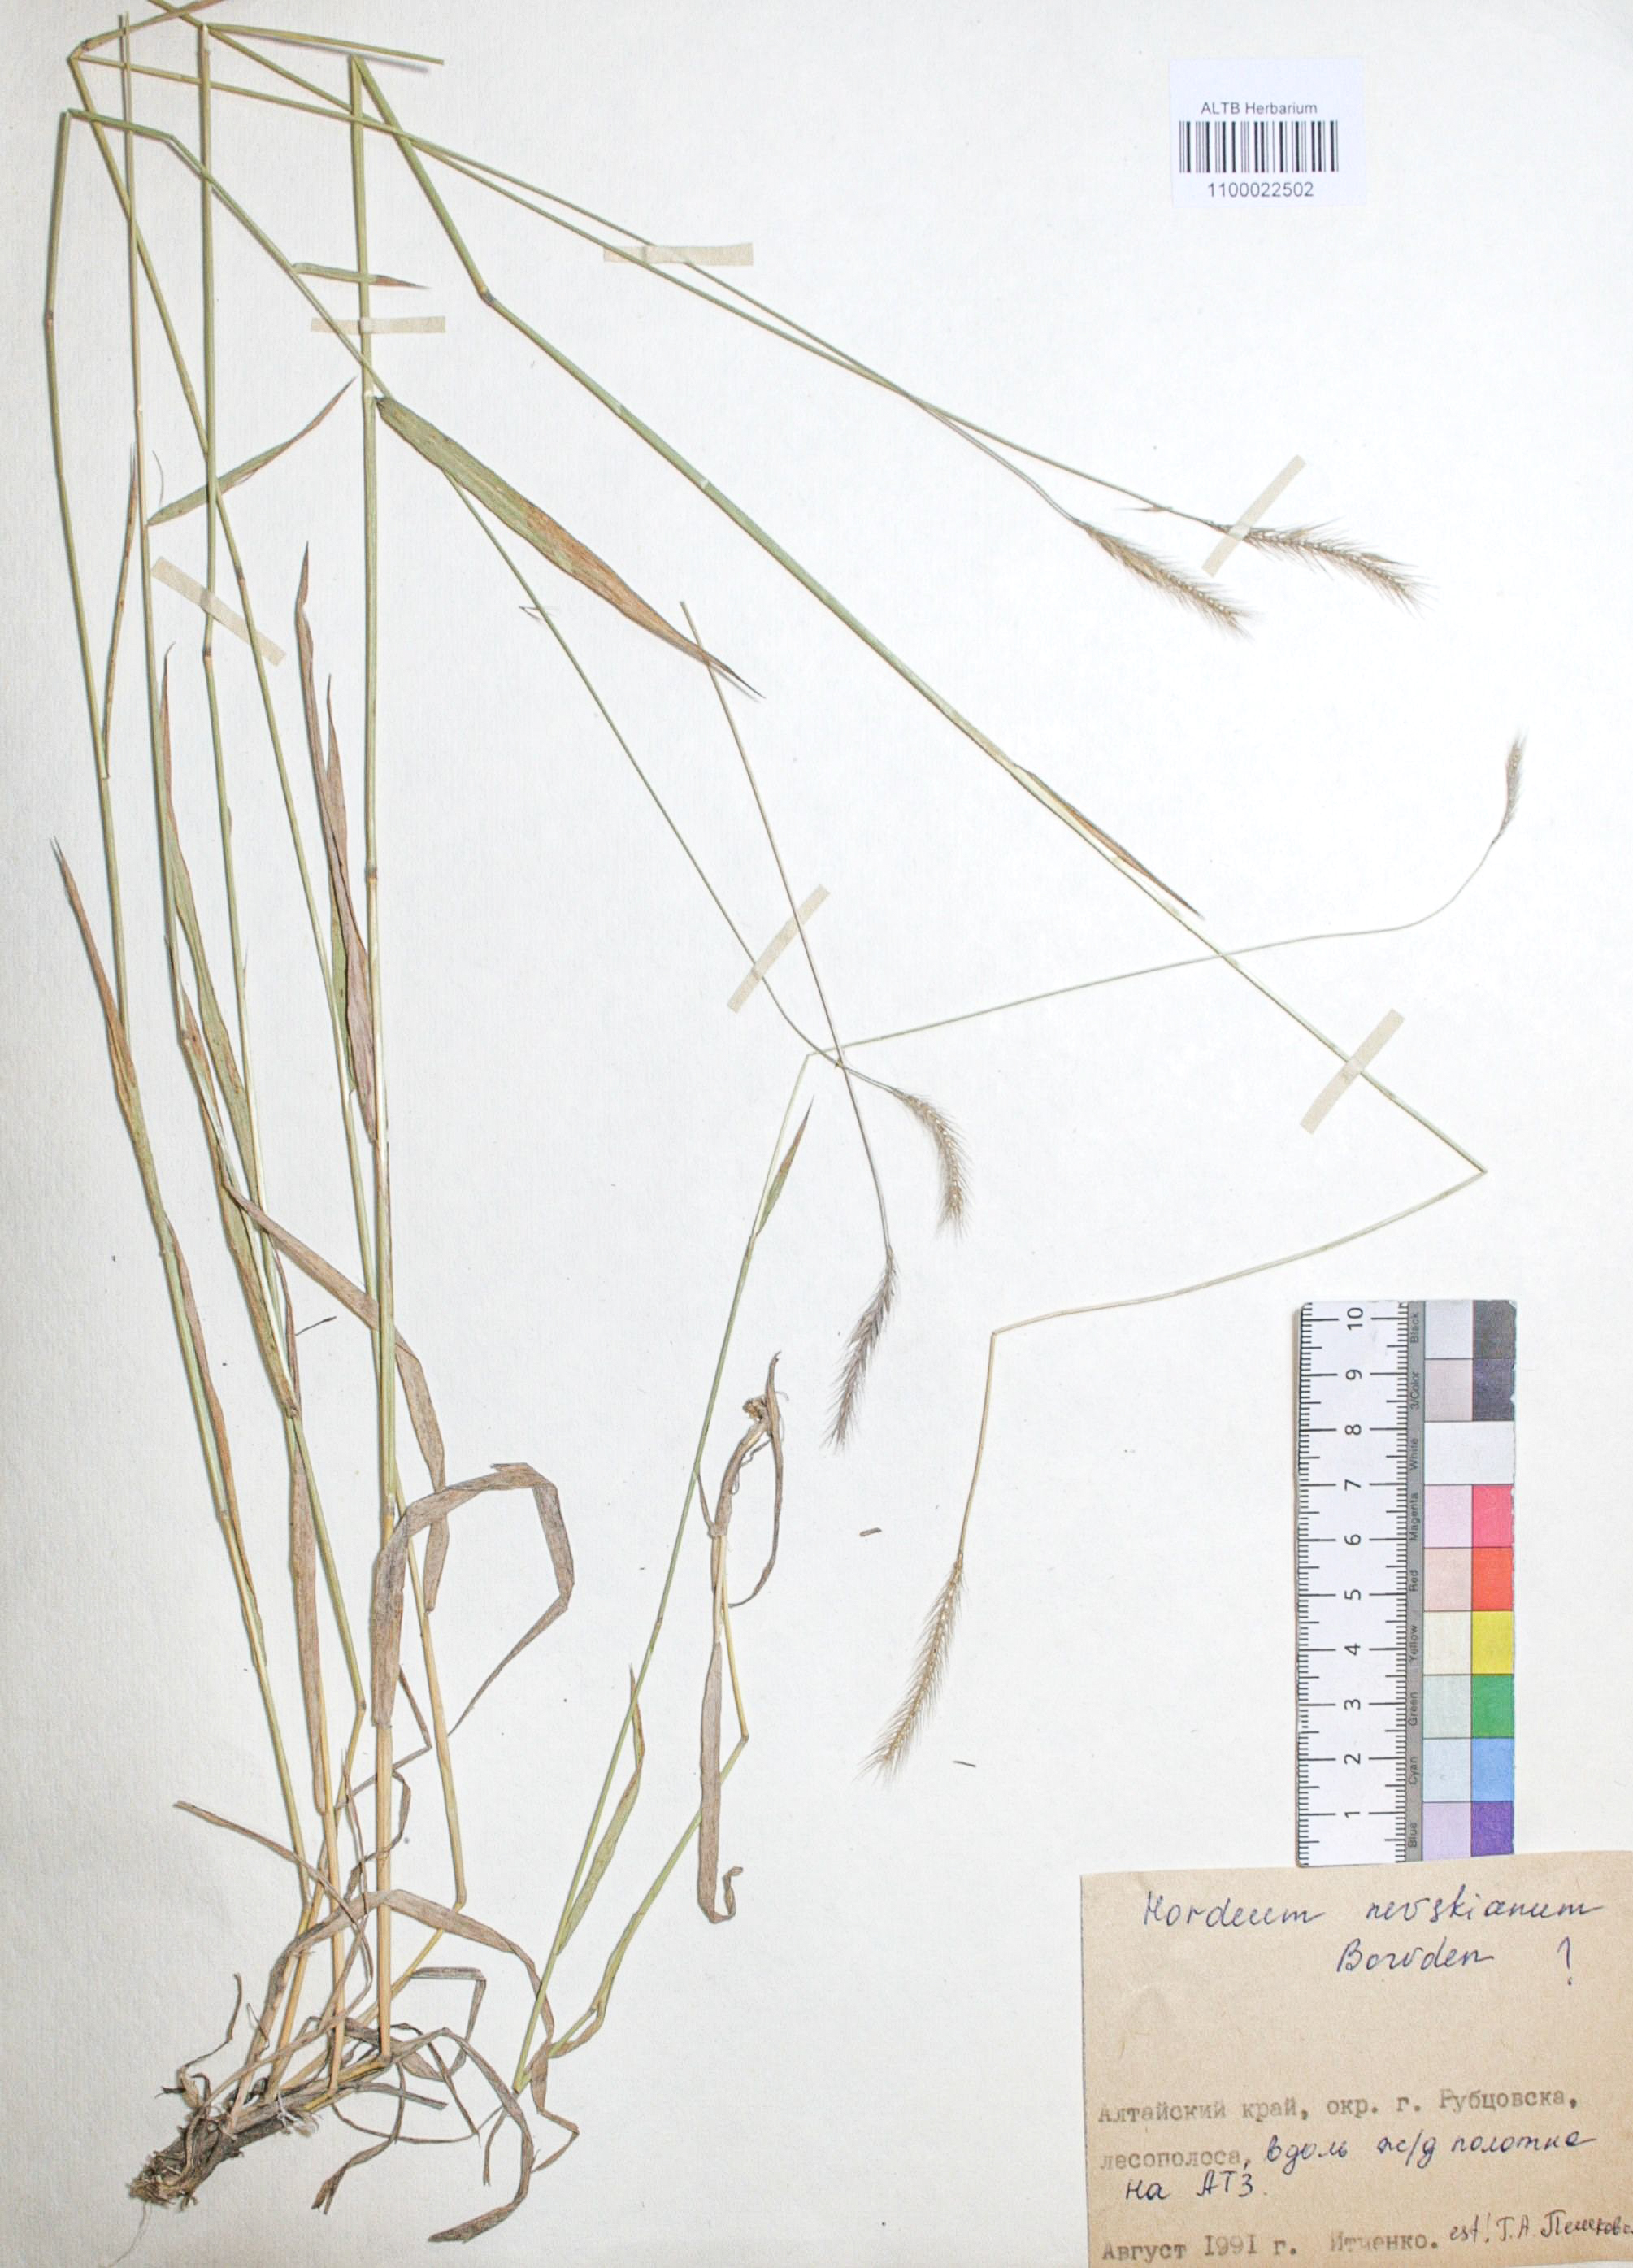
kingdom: Plantae
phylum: Tracheophyta
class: Liliopsida
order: Poales
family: Poaceae
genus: Hordeum
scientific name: Hordeum brevisubulatum
